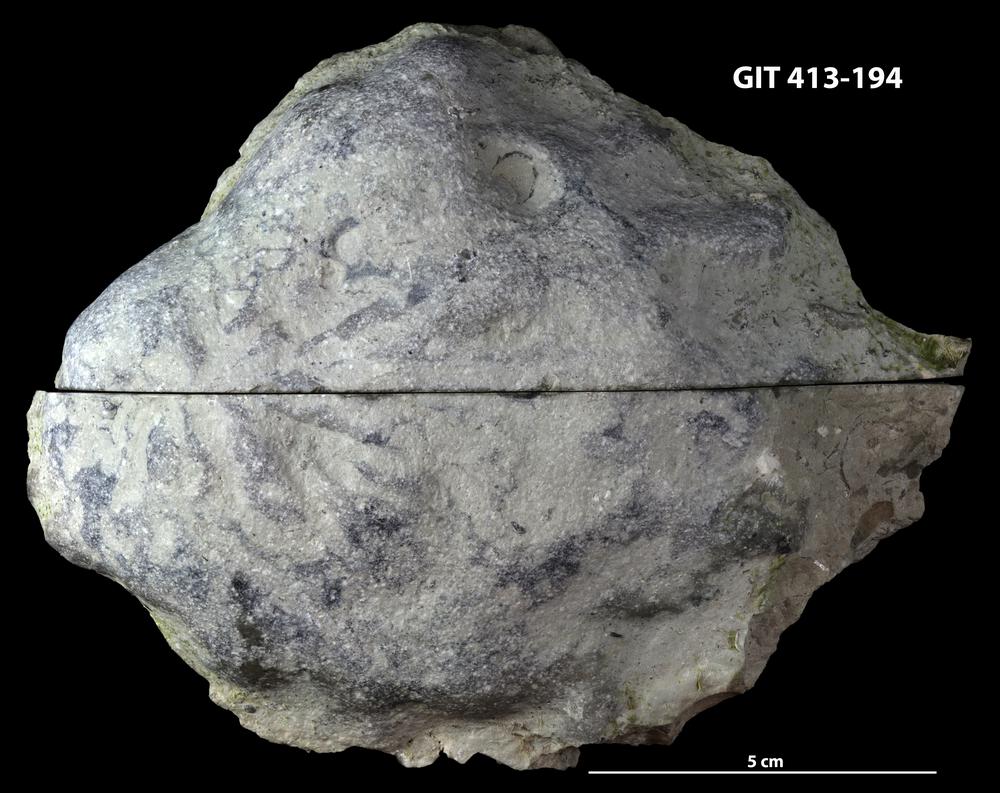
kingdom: Animalia
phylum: Porifera
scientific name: Porifera
